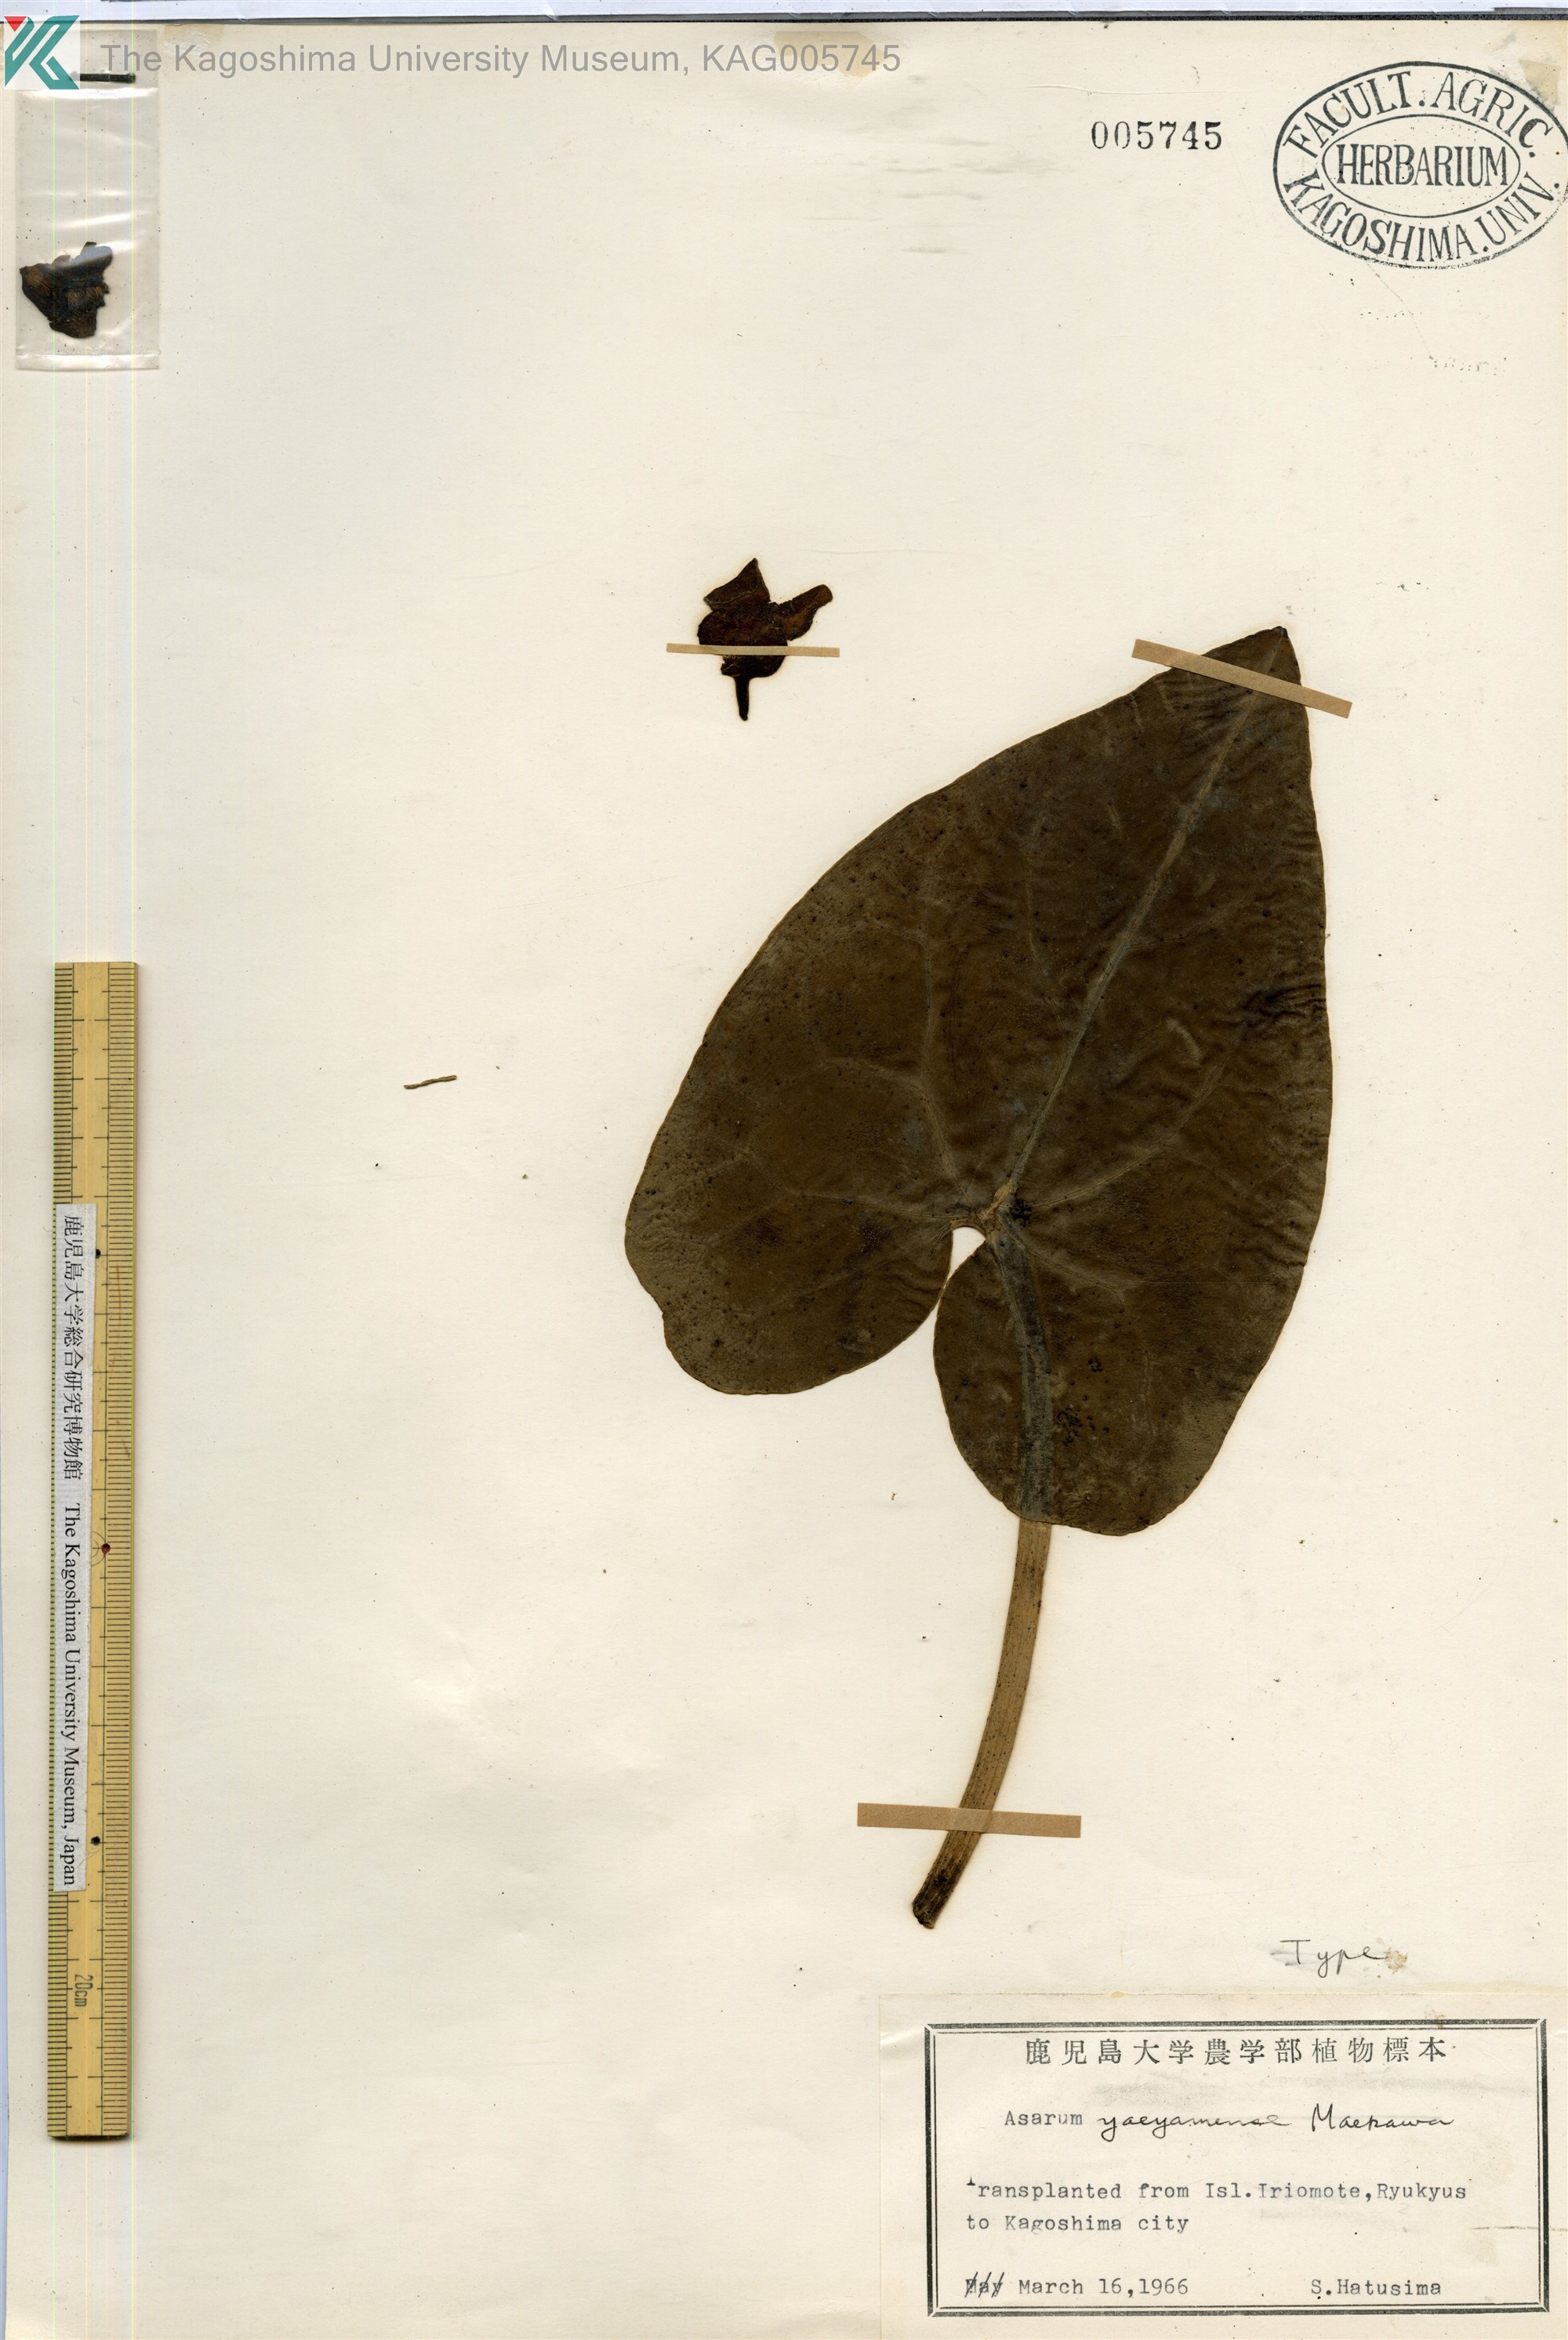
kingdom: Plantae
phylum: Tracheophyta
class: Magnoliopsida
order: Piperales
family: Aristolochiaceae
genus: Asarum
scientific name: Asarum yaeyamense
